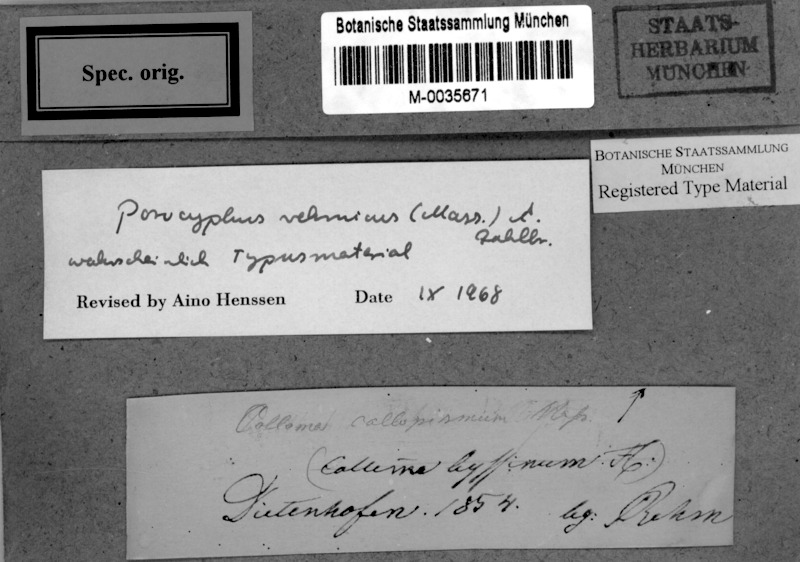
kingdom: Fungi
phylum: Ascomycota
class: Lichinomycetes
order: Lichinales
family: Lichinaceae
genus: Porocyphus
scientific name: Porocyphus rehmicus
